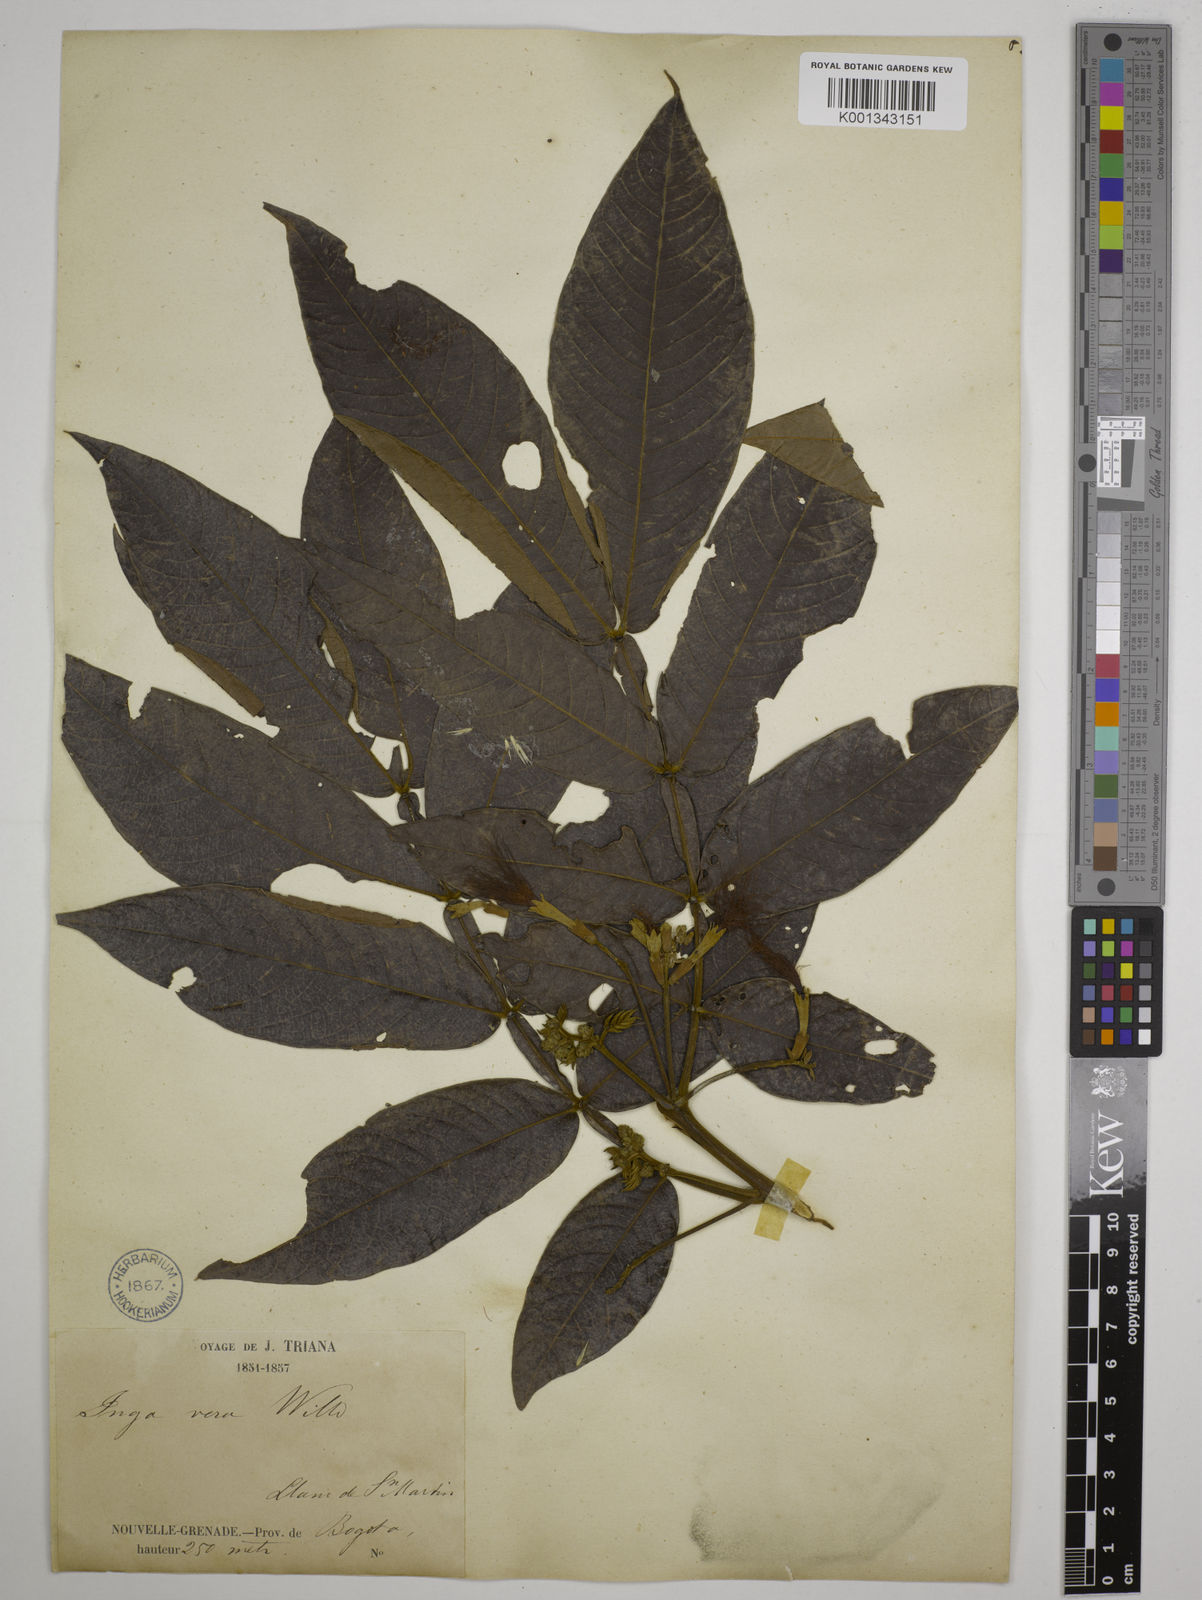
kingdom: Plantae
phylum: Tracheophyta
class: Magnoliopsida
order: Fabales
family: Fabaceae
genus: Inga
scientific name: Inga vera
